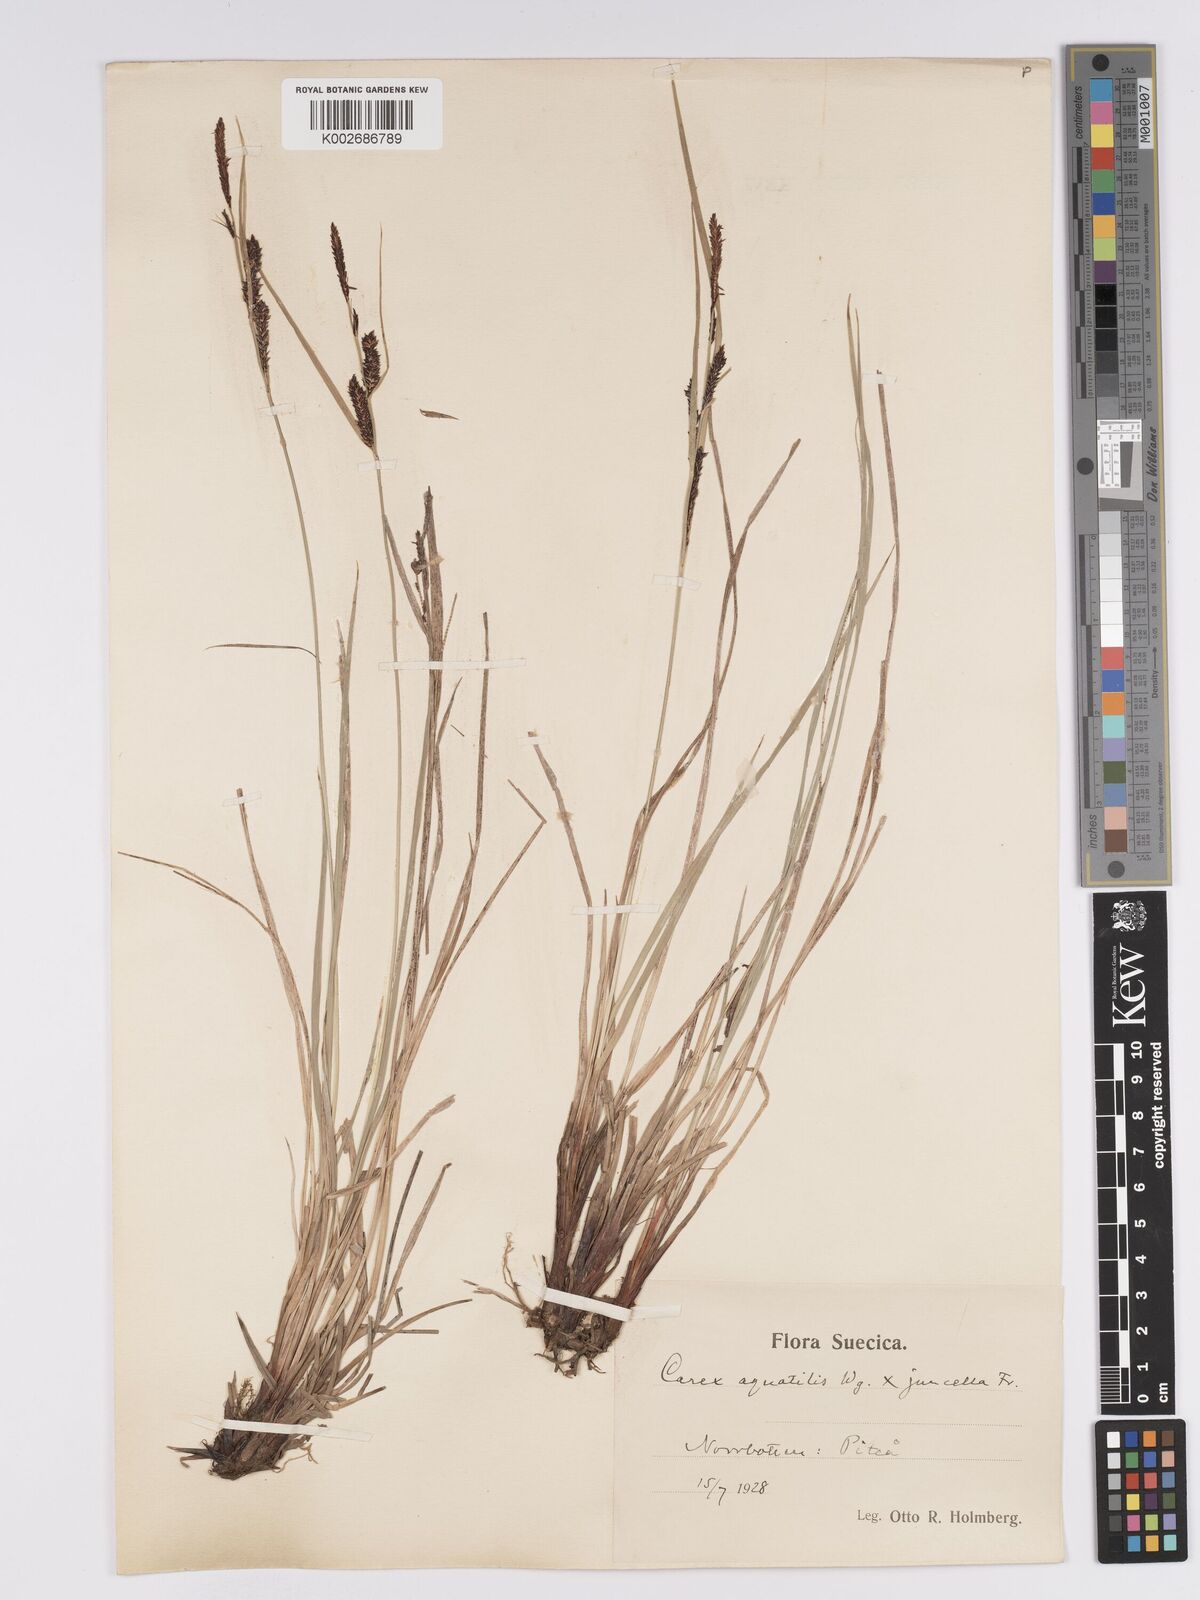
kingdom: Plantae
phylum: Tracheophyta
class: Liliopsida
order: Poales
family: Cyperaceae
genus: Carex
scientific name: Carex aquatilis
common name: Water sedge
